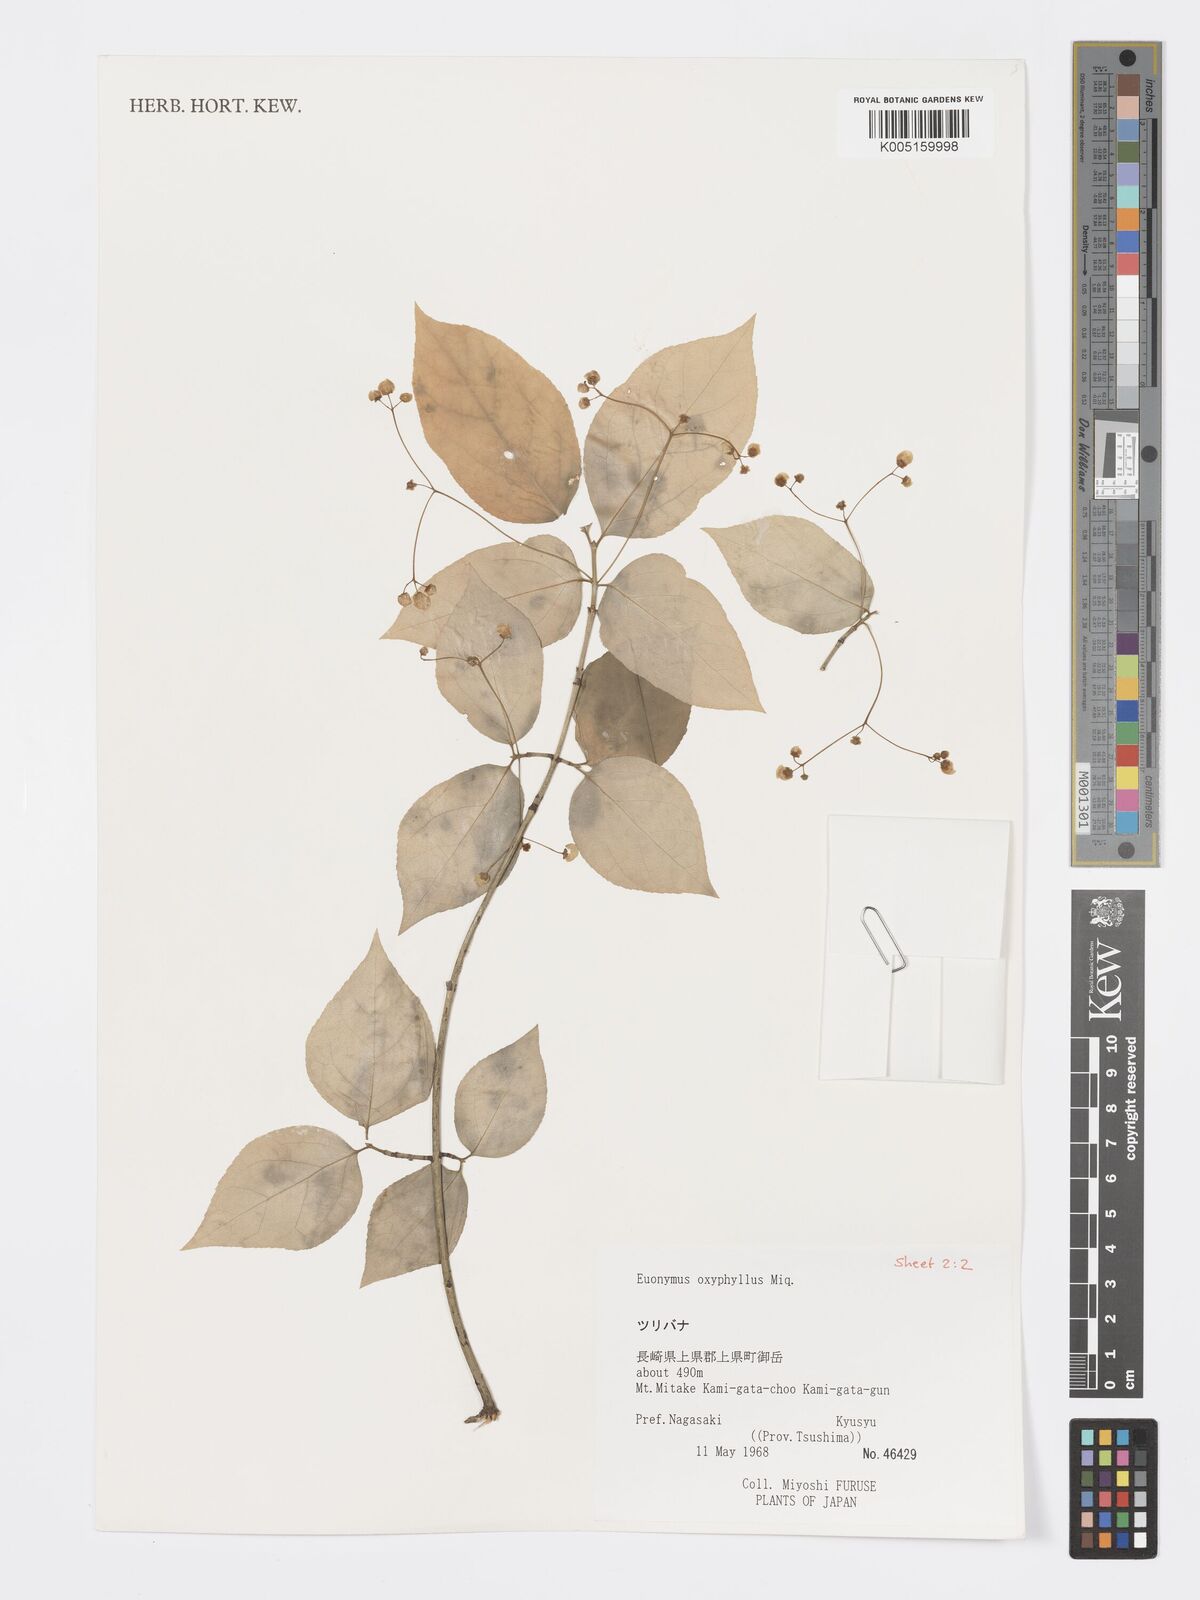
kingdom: Plantae
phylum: Tracheophyta
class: Magnoliopsida
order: Celastrales
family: Celastraceae
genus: Euonymus
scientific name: Euonymus oxyphyllus
